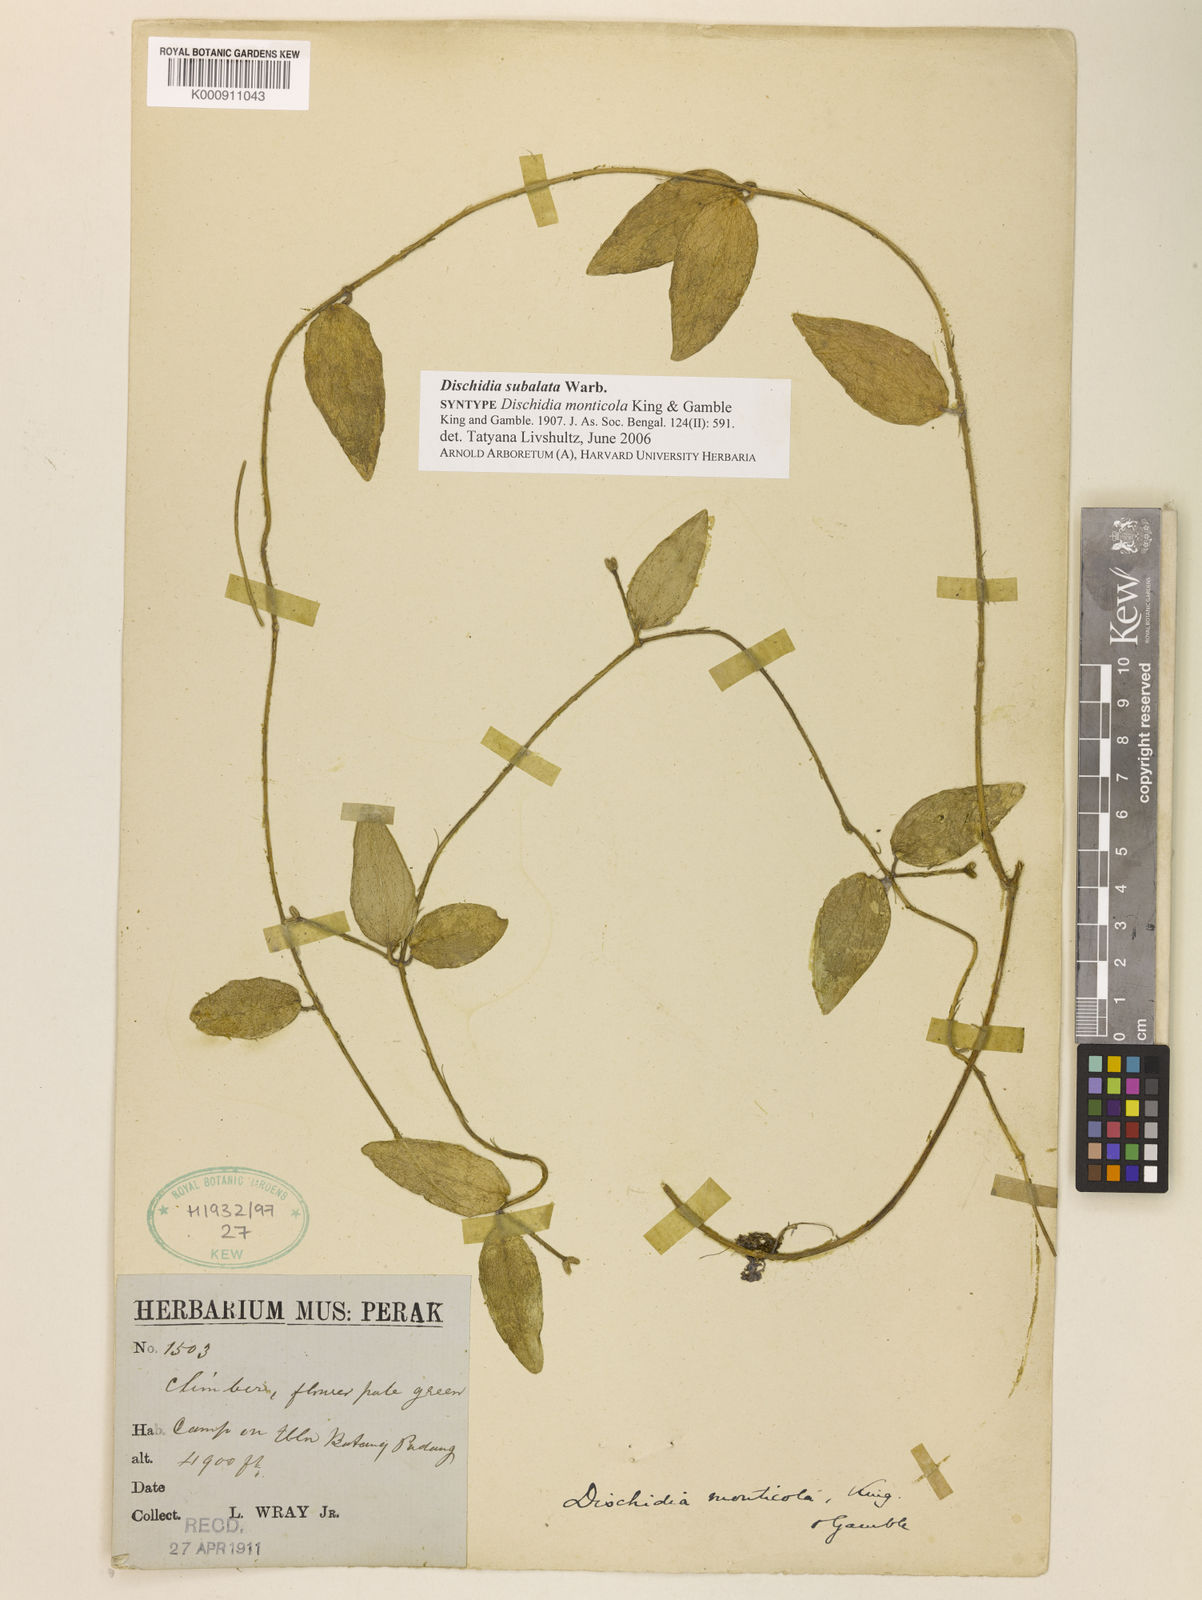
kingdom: Plantae
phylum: Tracheophyta
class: Magnoliopsida
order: Gentianales
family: Apocynaceae
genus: Dischidia
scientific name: Dischidia
